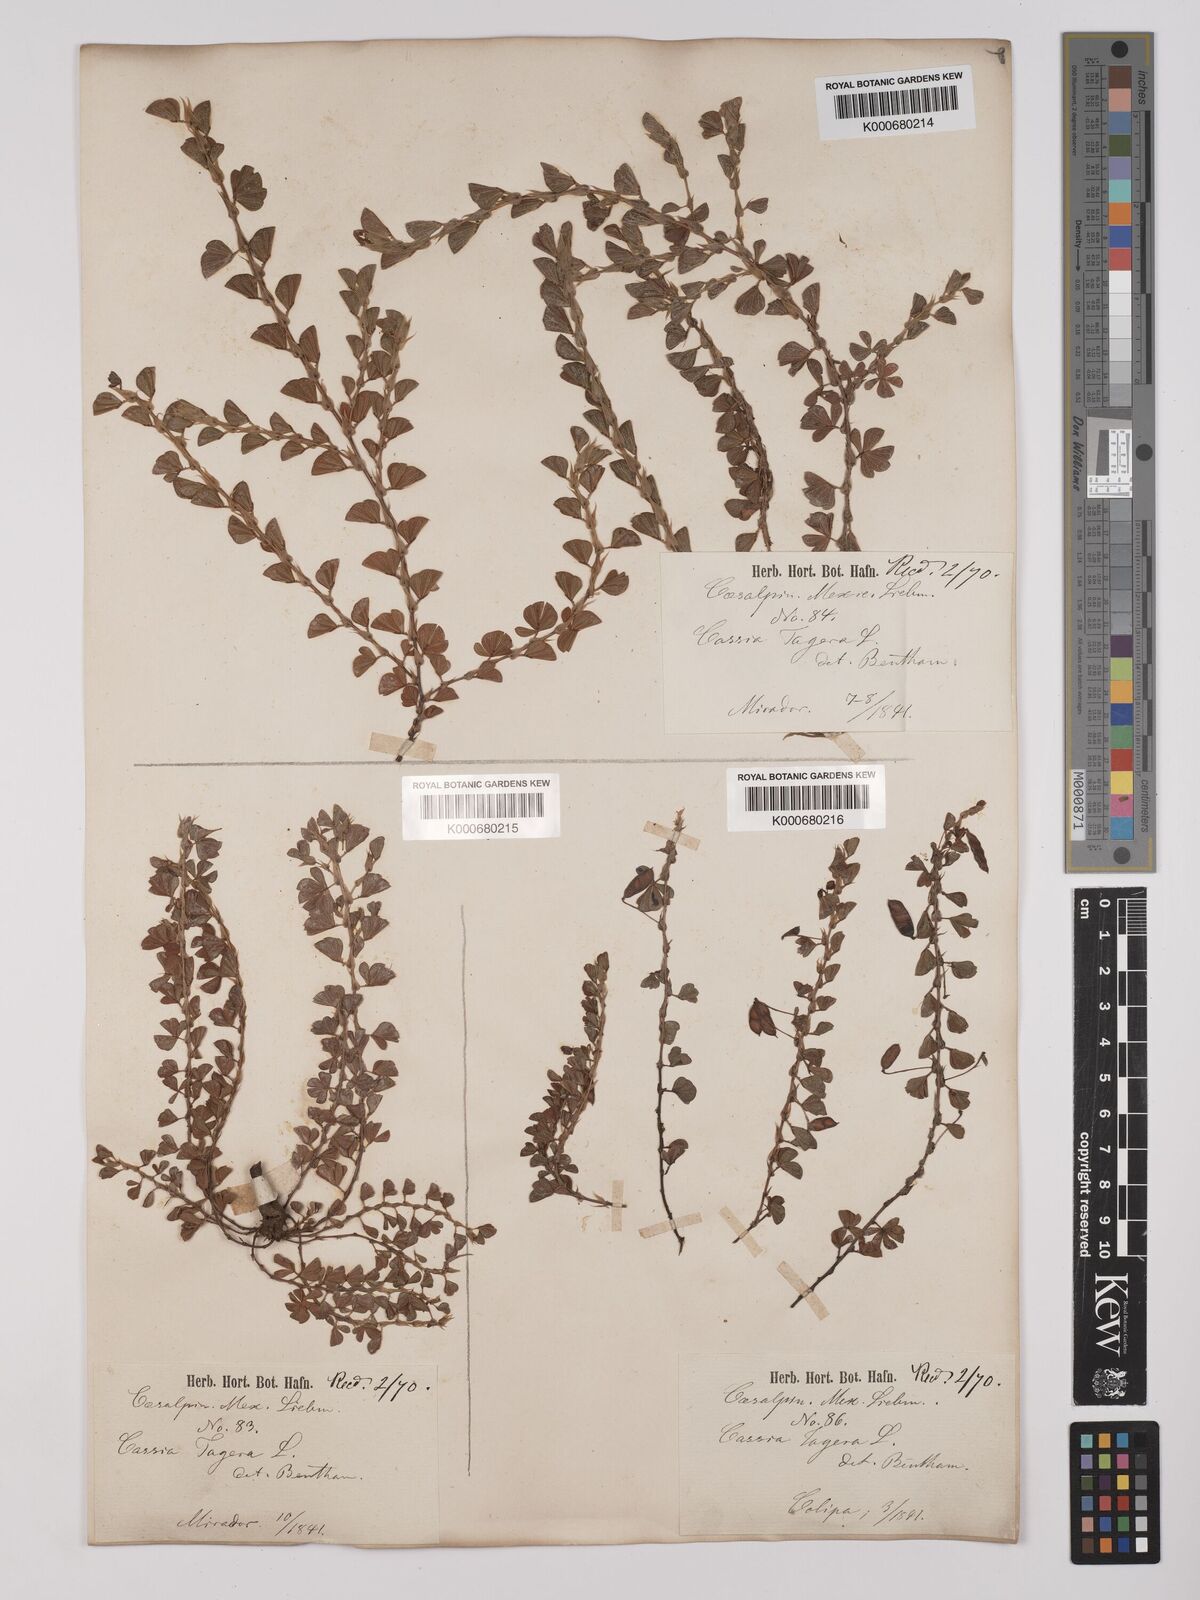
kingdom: Plantae
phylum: Tracheophyta
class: Magnoliopsida
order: Fabales
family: Fabaceae
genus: Chamaecrista
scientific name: Chamaecrista kunthiana
